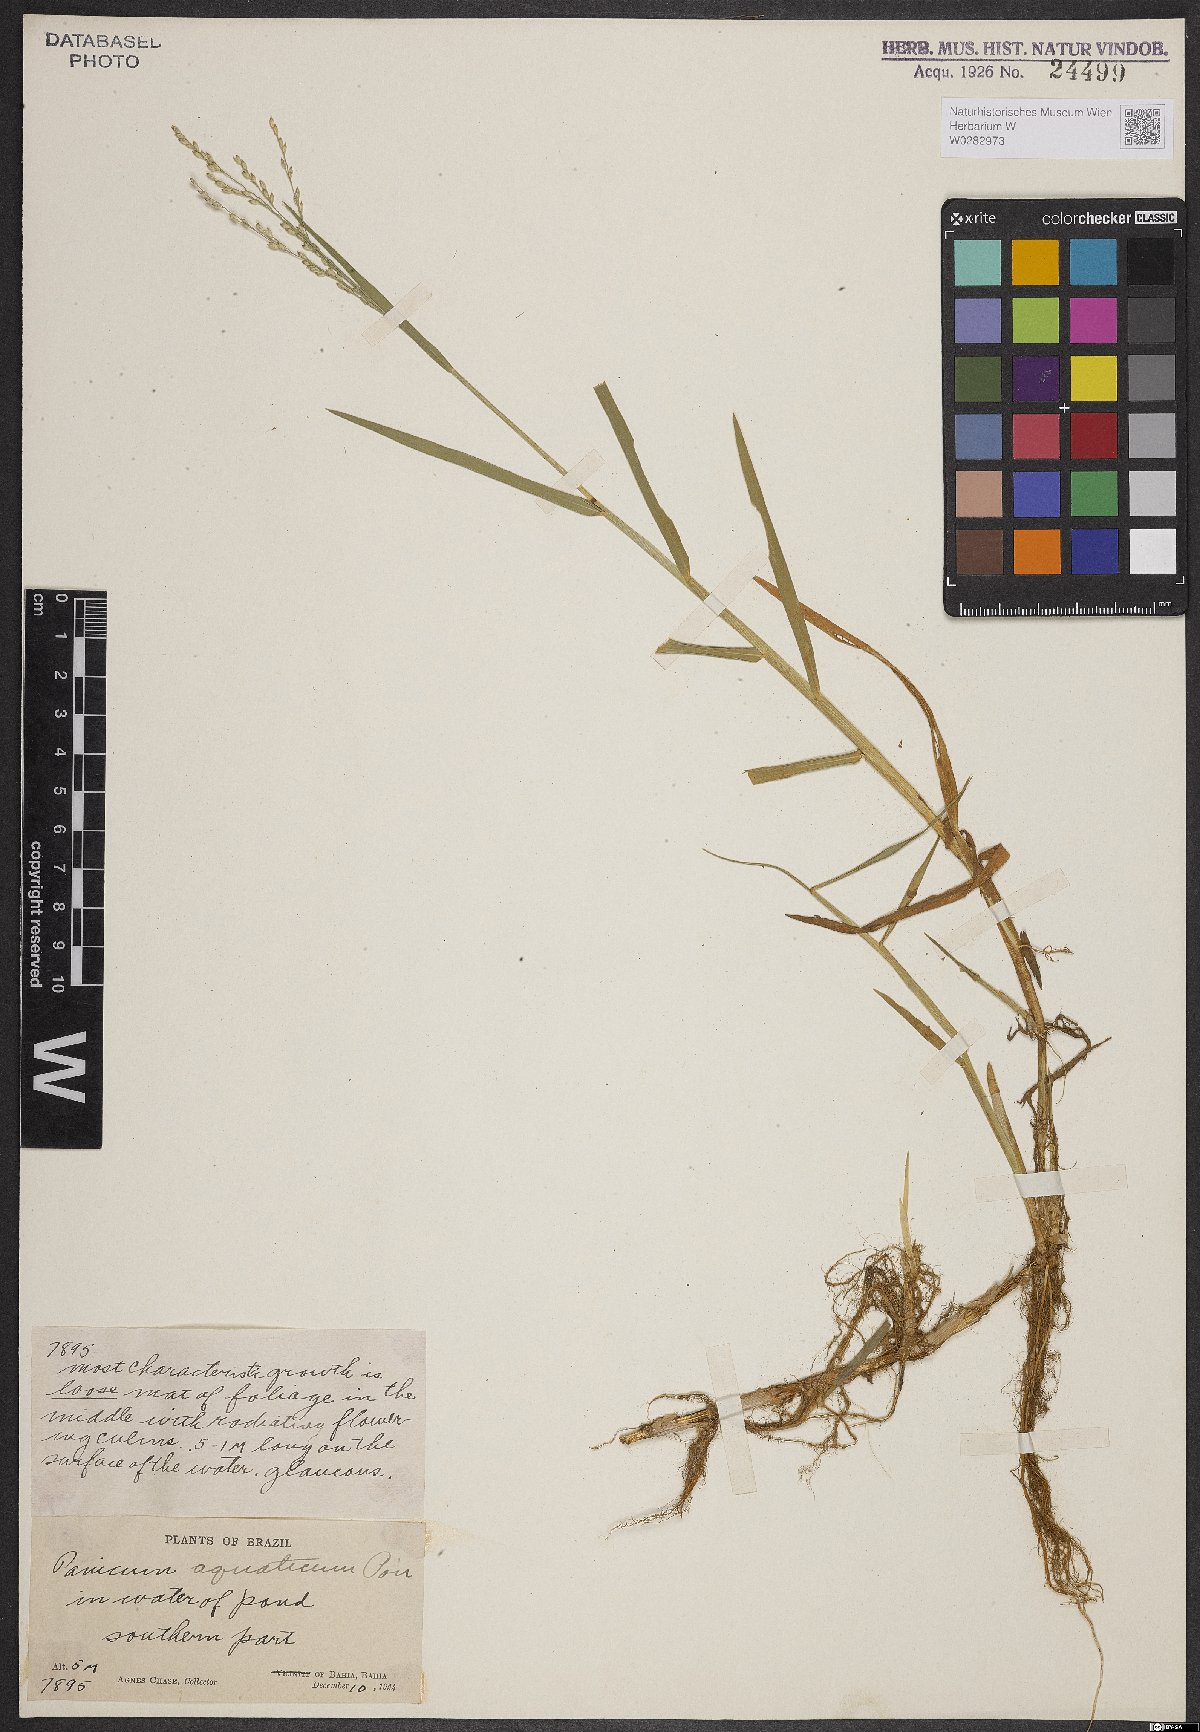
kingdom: Plantae
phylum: Tracheophyta
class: Liliopsida
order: Poales
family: Poaceae
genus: Panicum
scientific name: Panicum aquaticum
